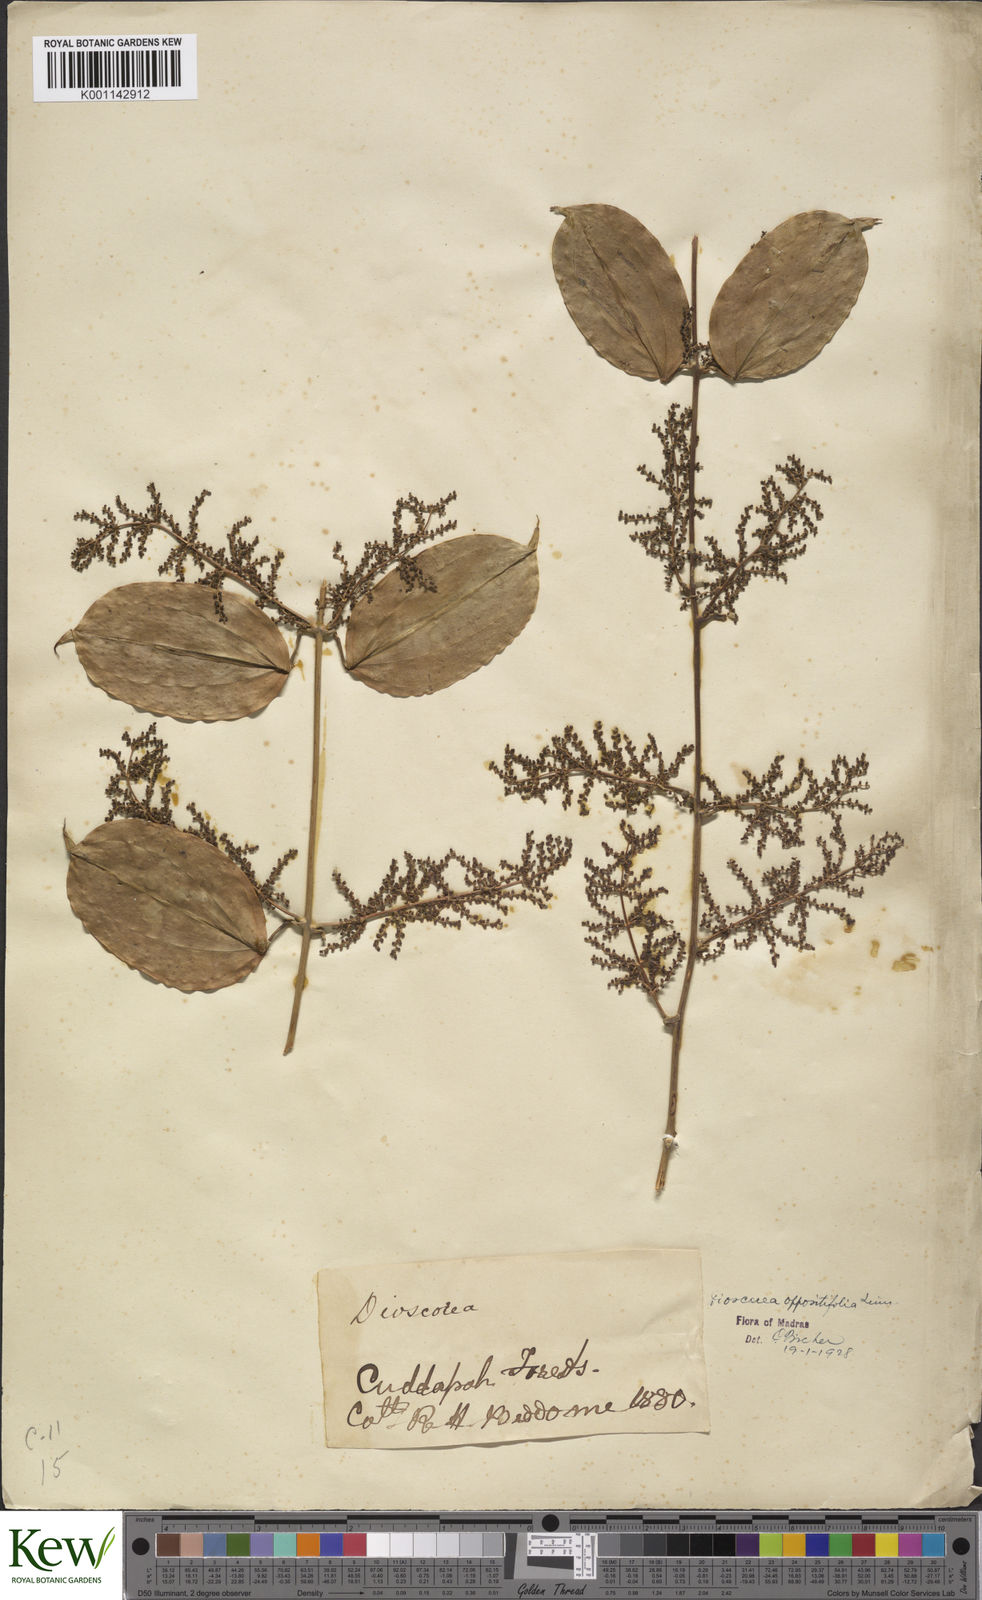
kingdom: Plantae
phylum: Tracheophyta
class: Liliopsida
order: Dioscoreales
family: Dioscoreaceae
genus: Dioscorea
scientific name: Dioscorea oppositifolia
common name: Chinese yam
